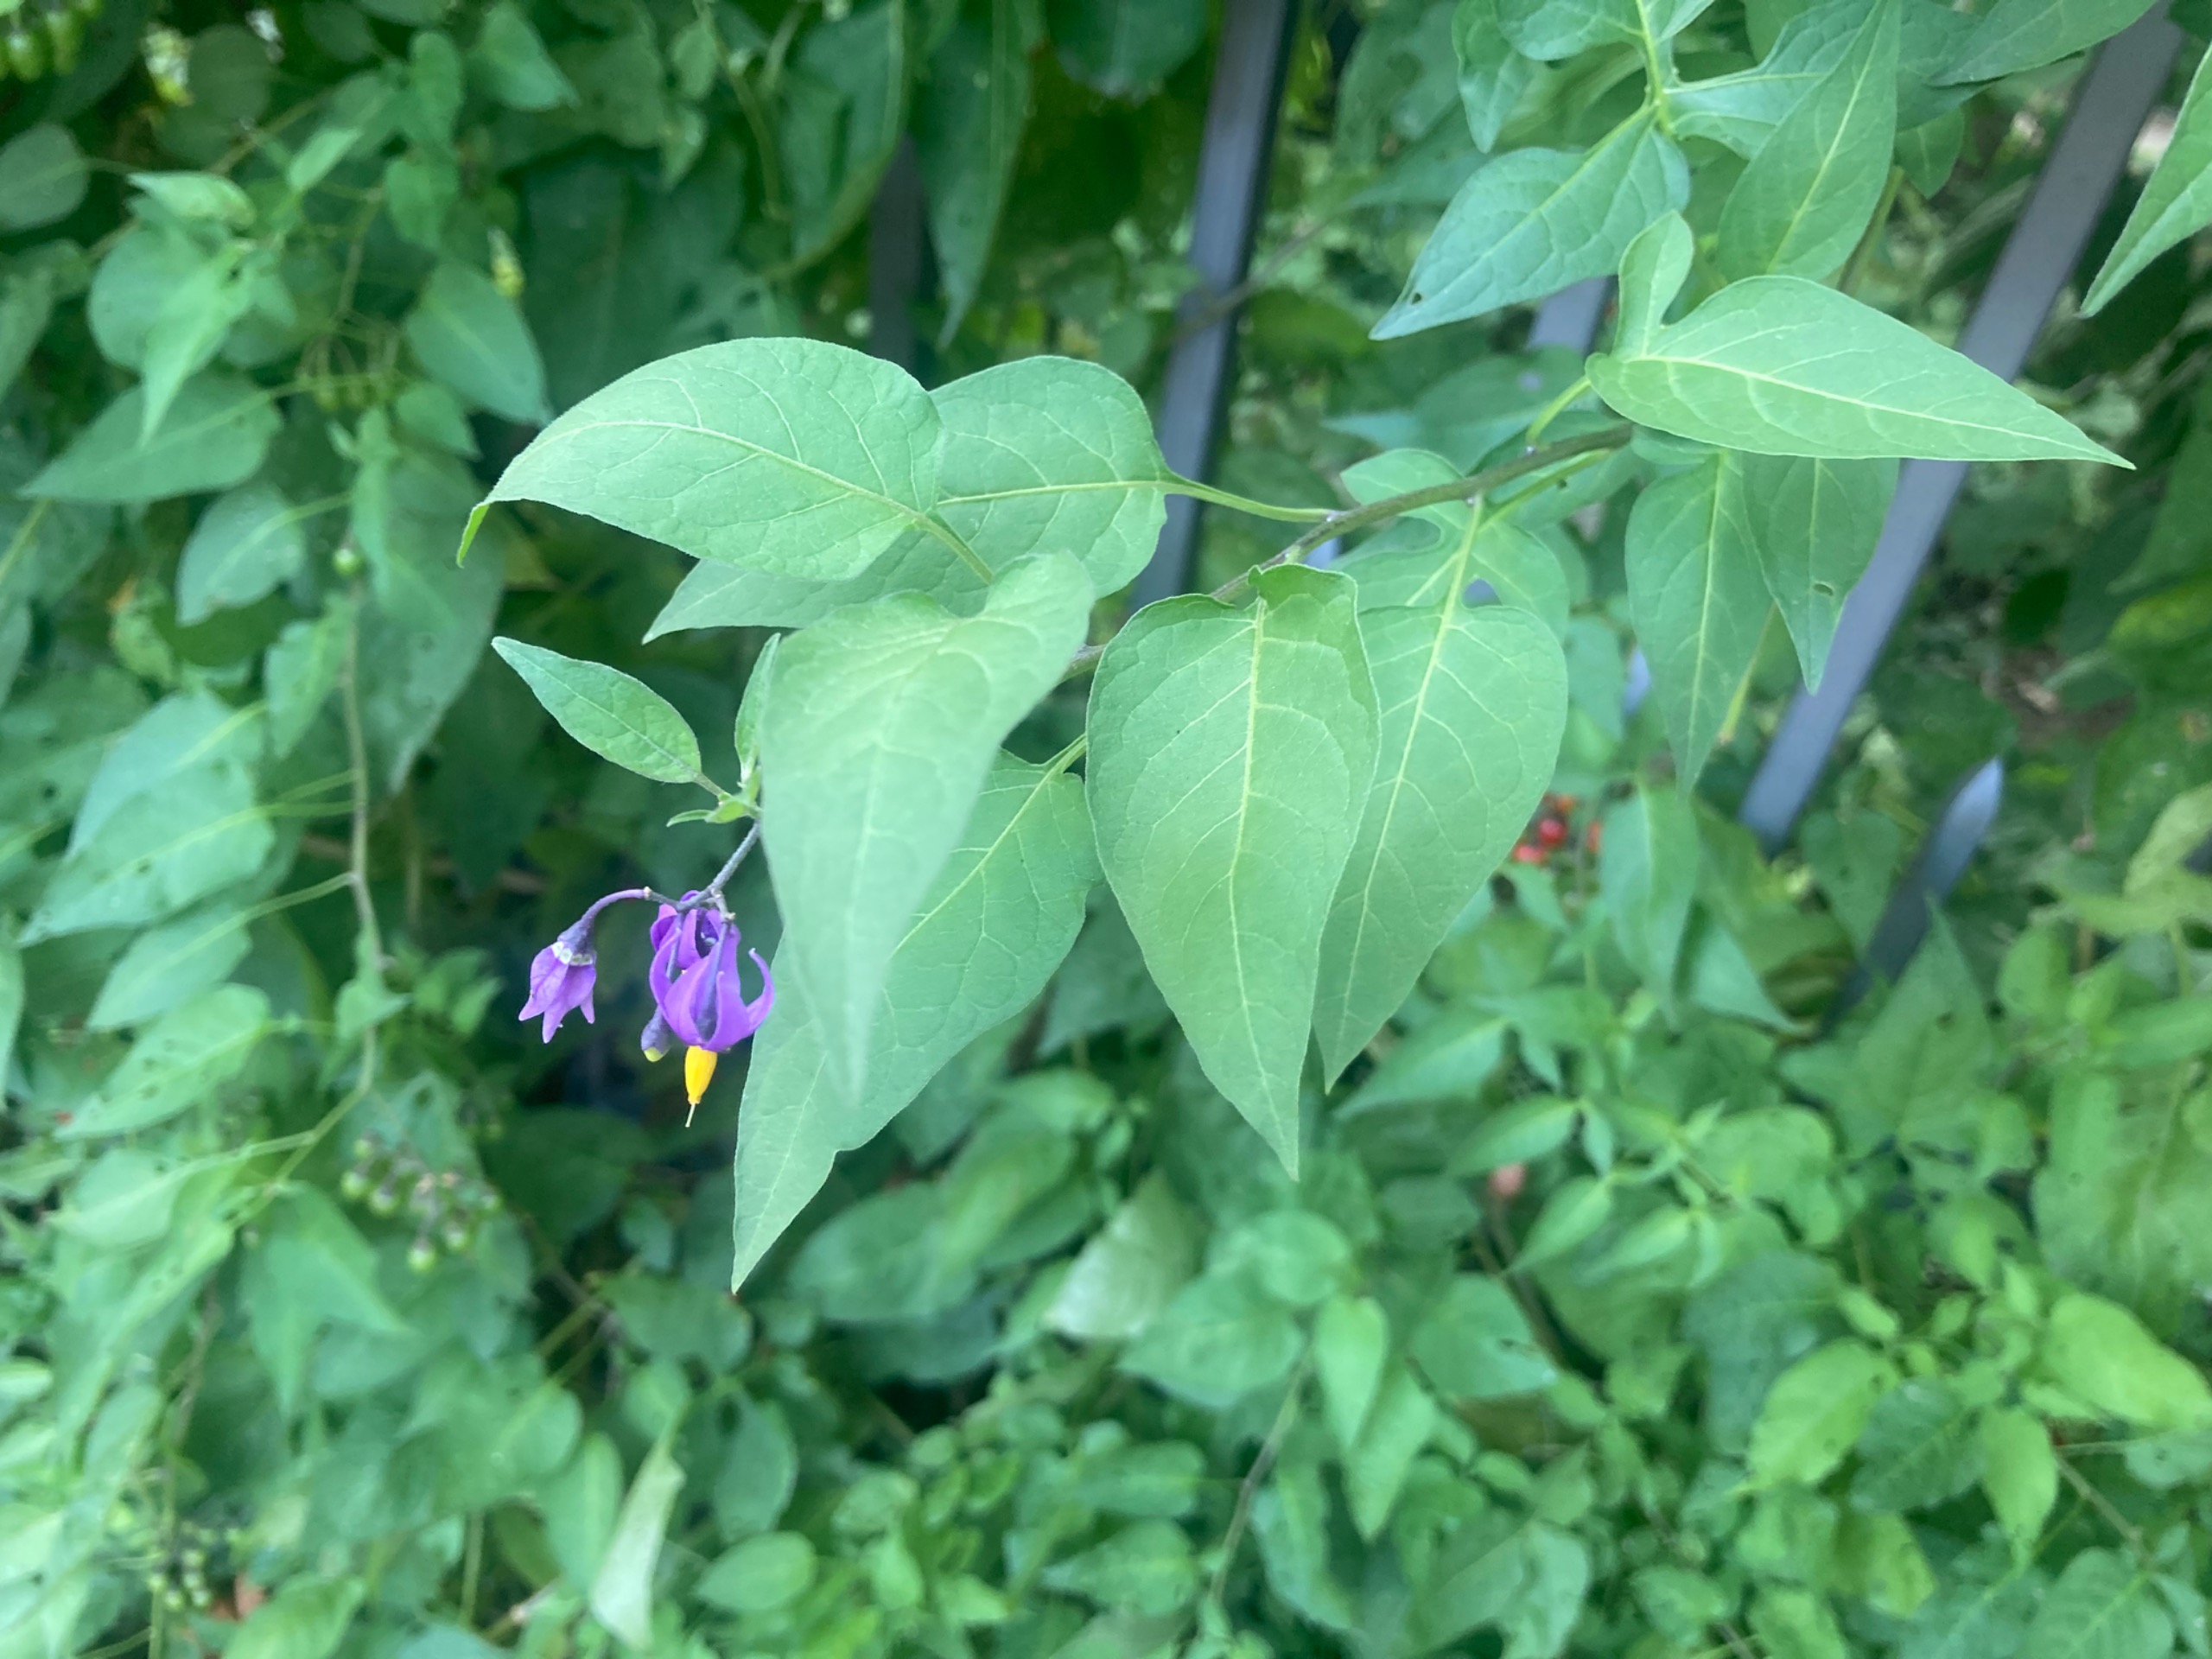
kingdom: Plantae
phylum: Tracheophyta
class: Magnoliopsida
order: Solanales
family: Solanaceae
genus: Solanum
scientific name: Solanum dulcamara
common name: Bittersød natskygge
